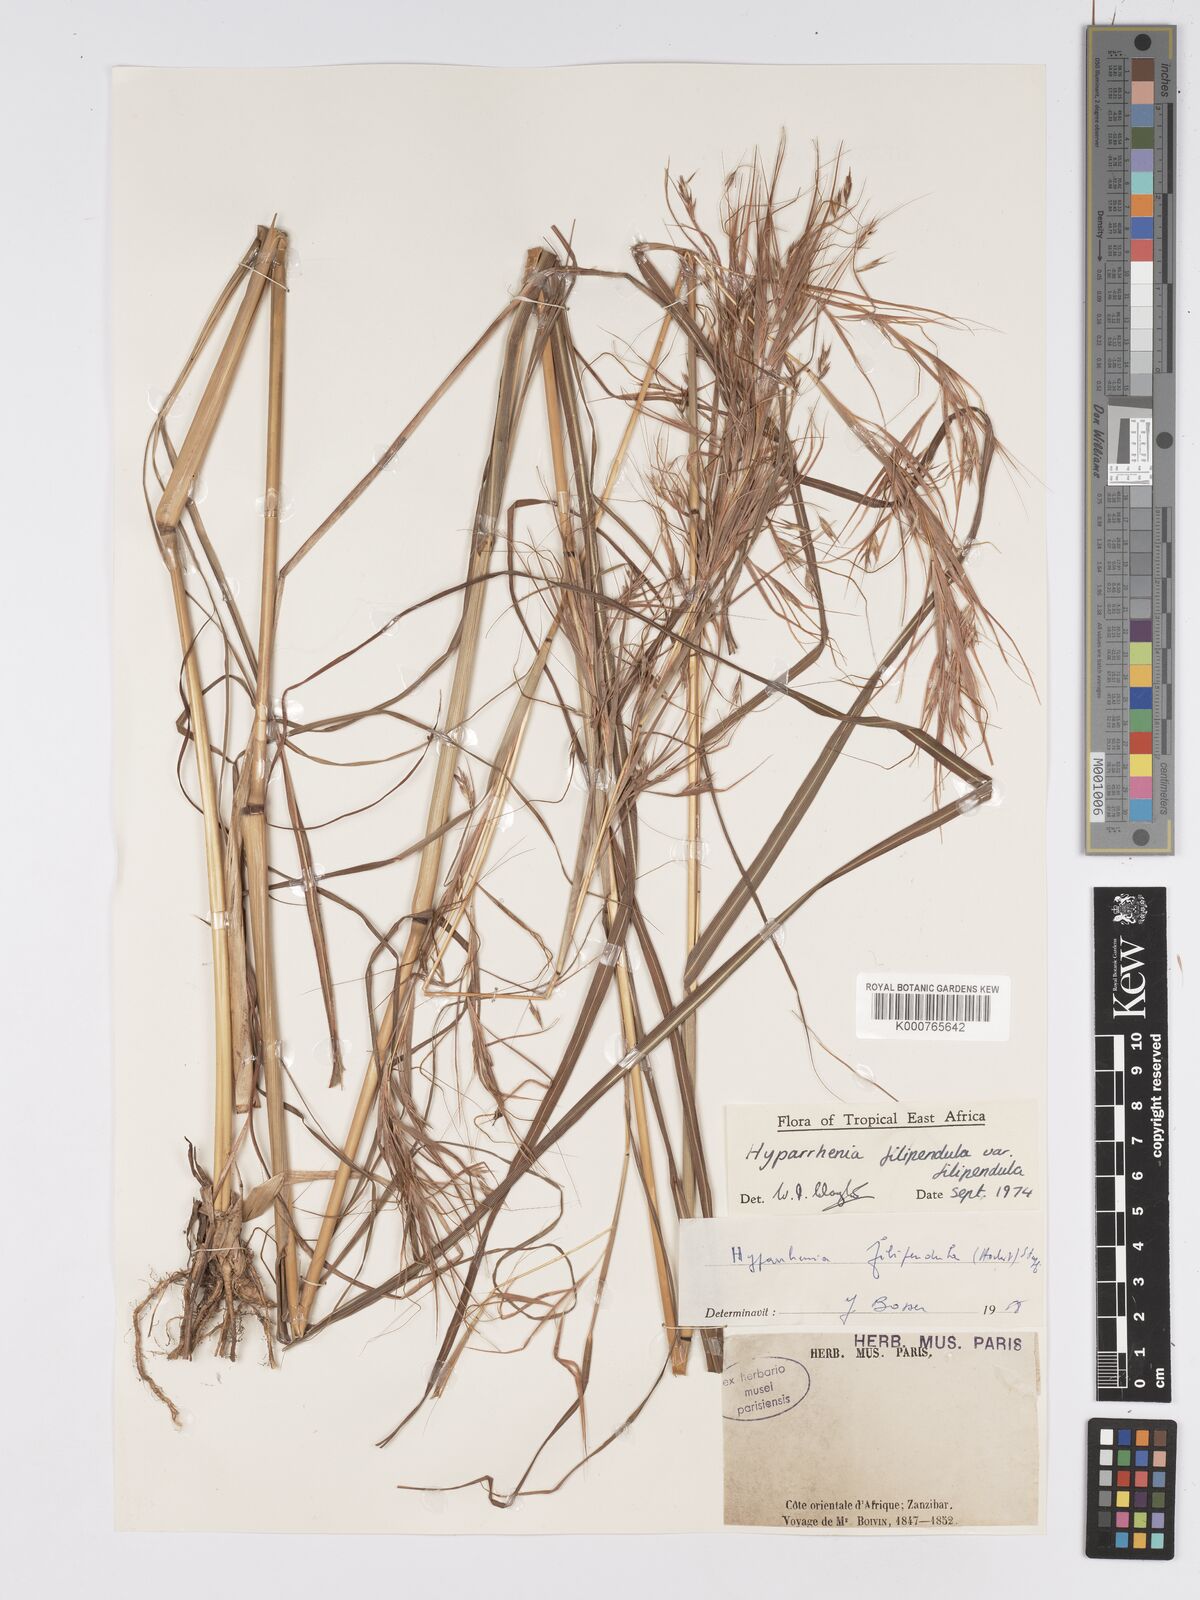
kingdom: Plantae
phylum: Tracheophyta
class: Liliopsida
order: Poales
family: Poaceae
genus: Hyparrhenia
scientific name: Hyparrhenia filipendula
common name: Tambookie grass
